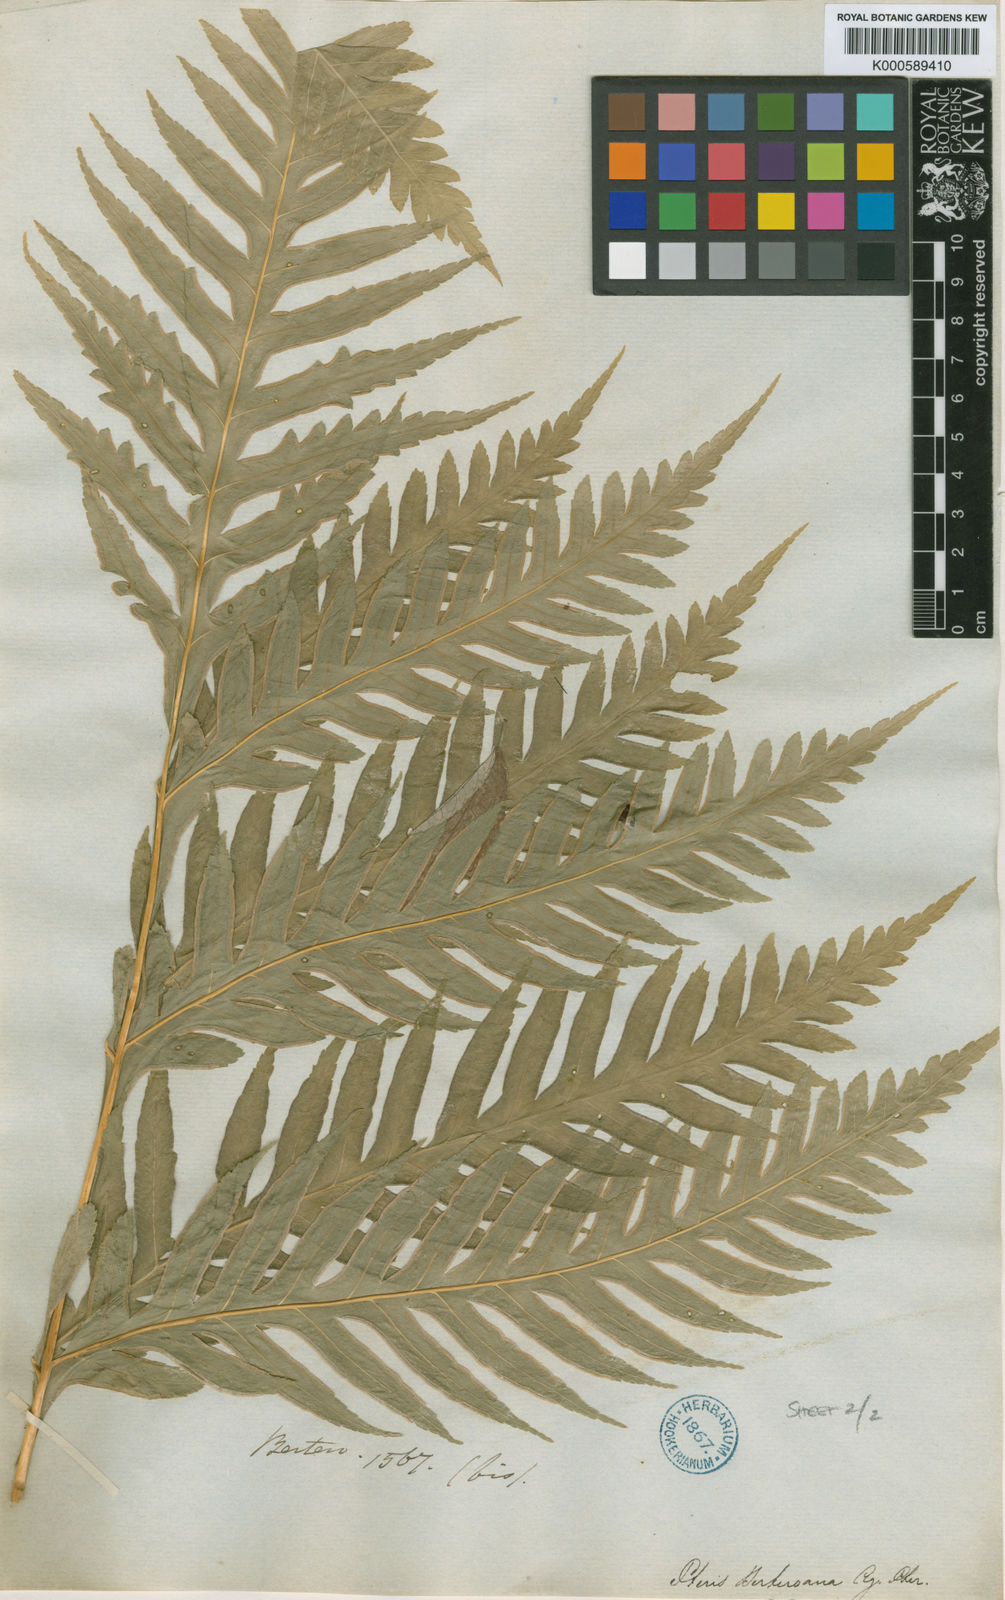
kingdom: Plantae
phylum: Tracheophyta
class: Polypodiopsida
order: Polypodiales
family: Pteridaceae
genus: Pteris
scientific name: Pteris berteroana
